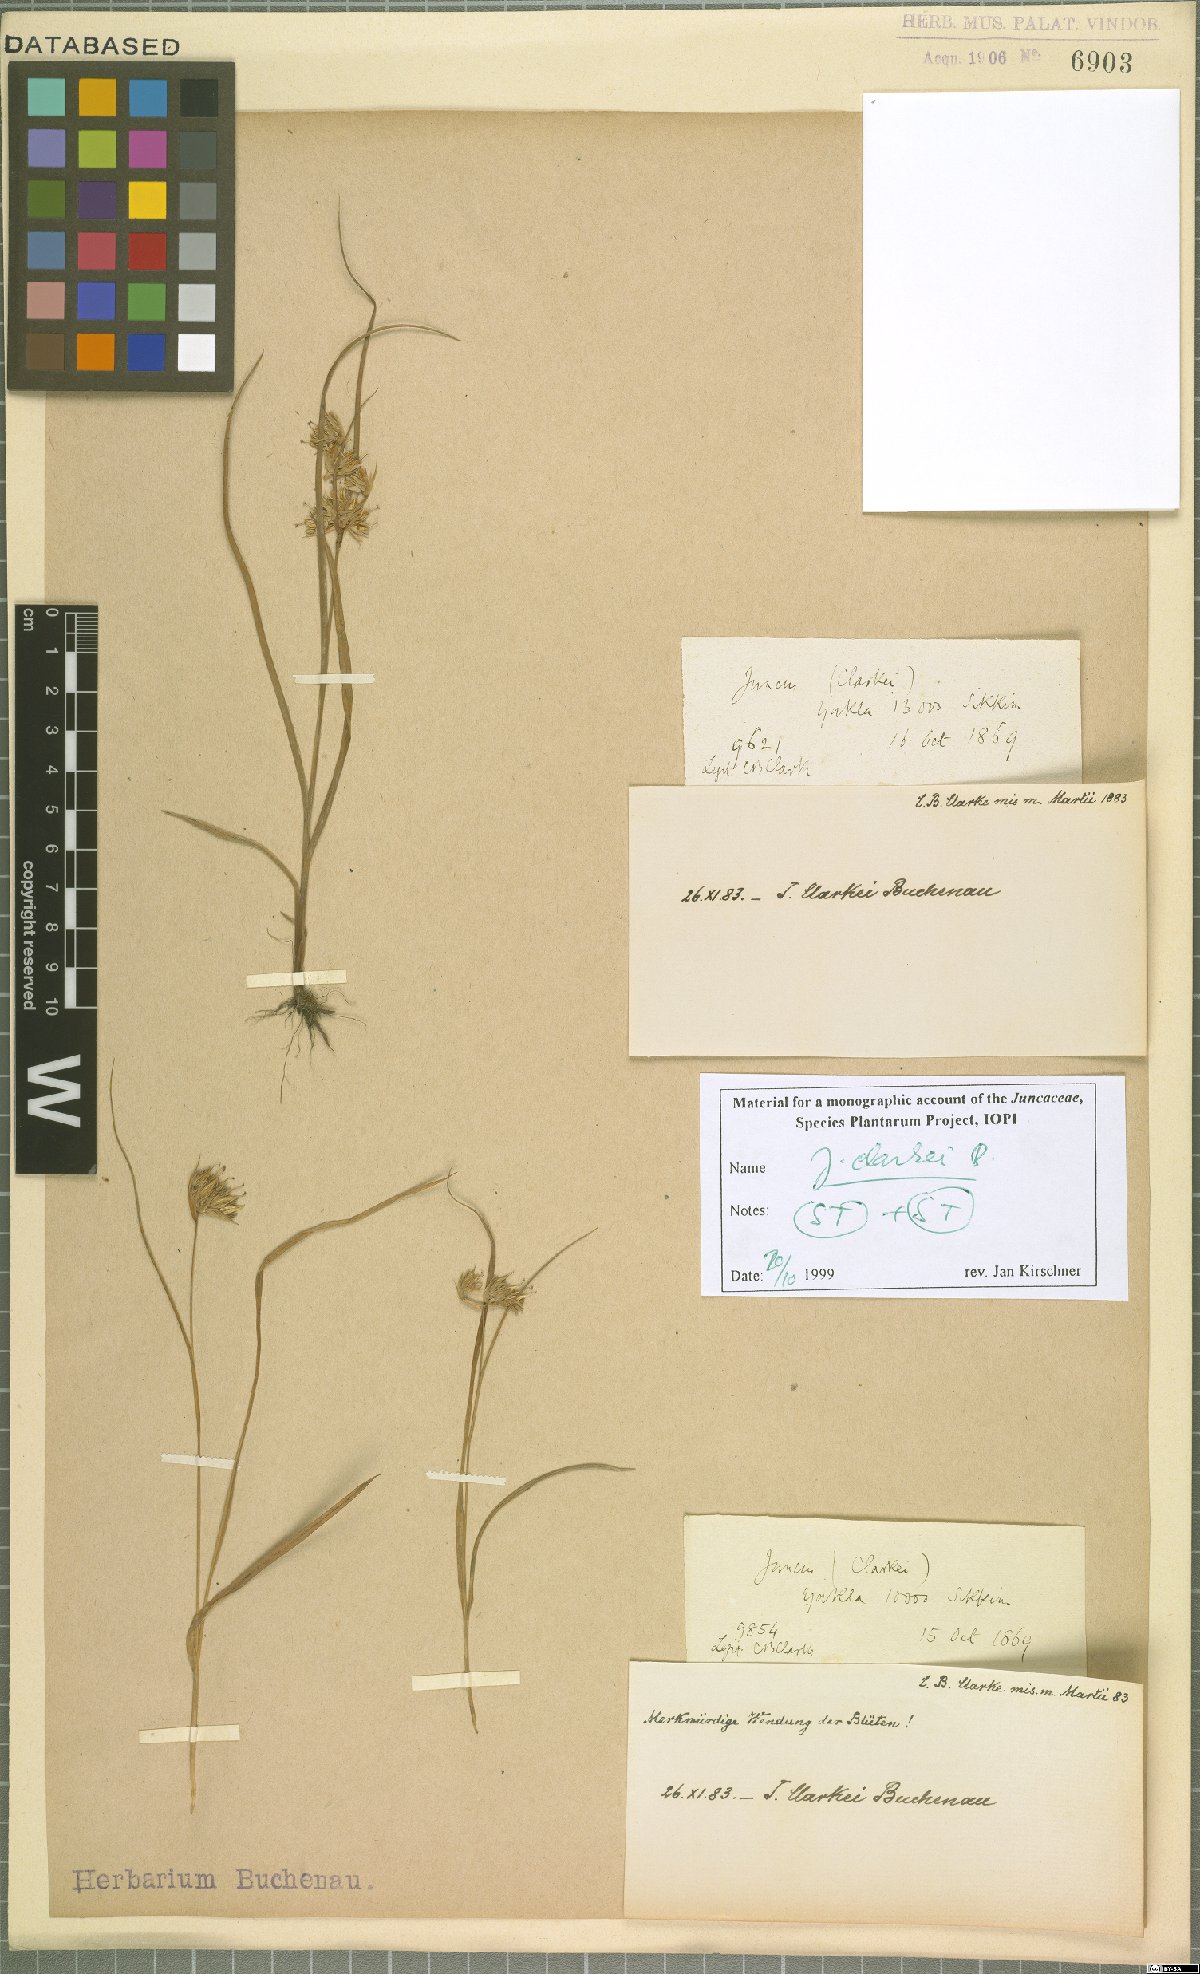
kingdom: Plantae
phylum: Tracheophyta
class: Liliopsida
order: Poales
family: Juncaceae
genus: Juncus
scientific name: Juncus clarkei
